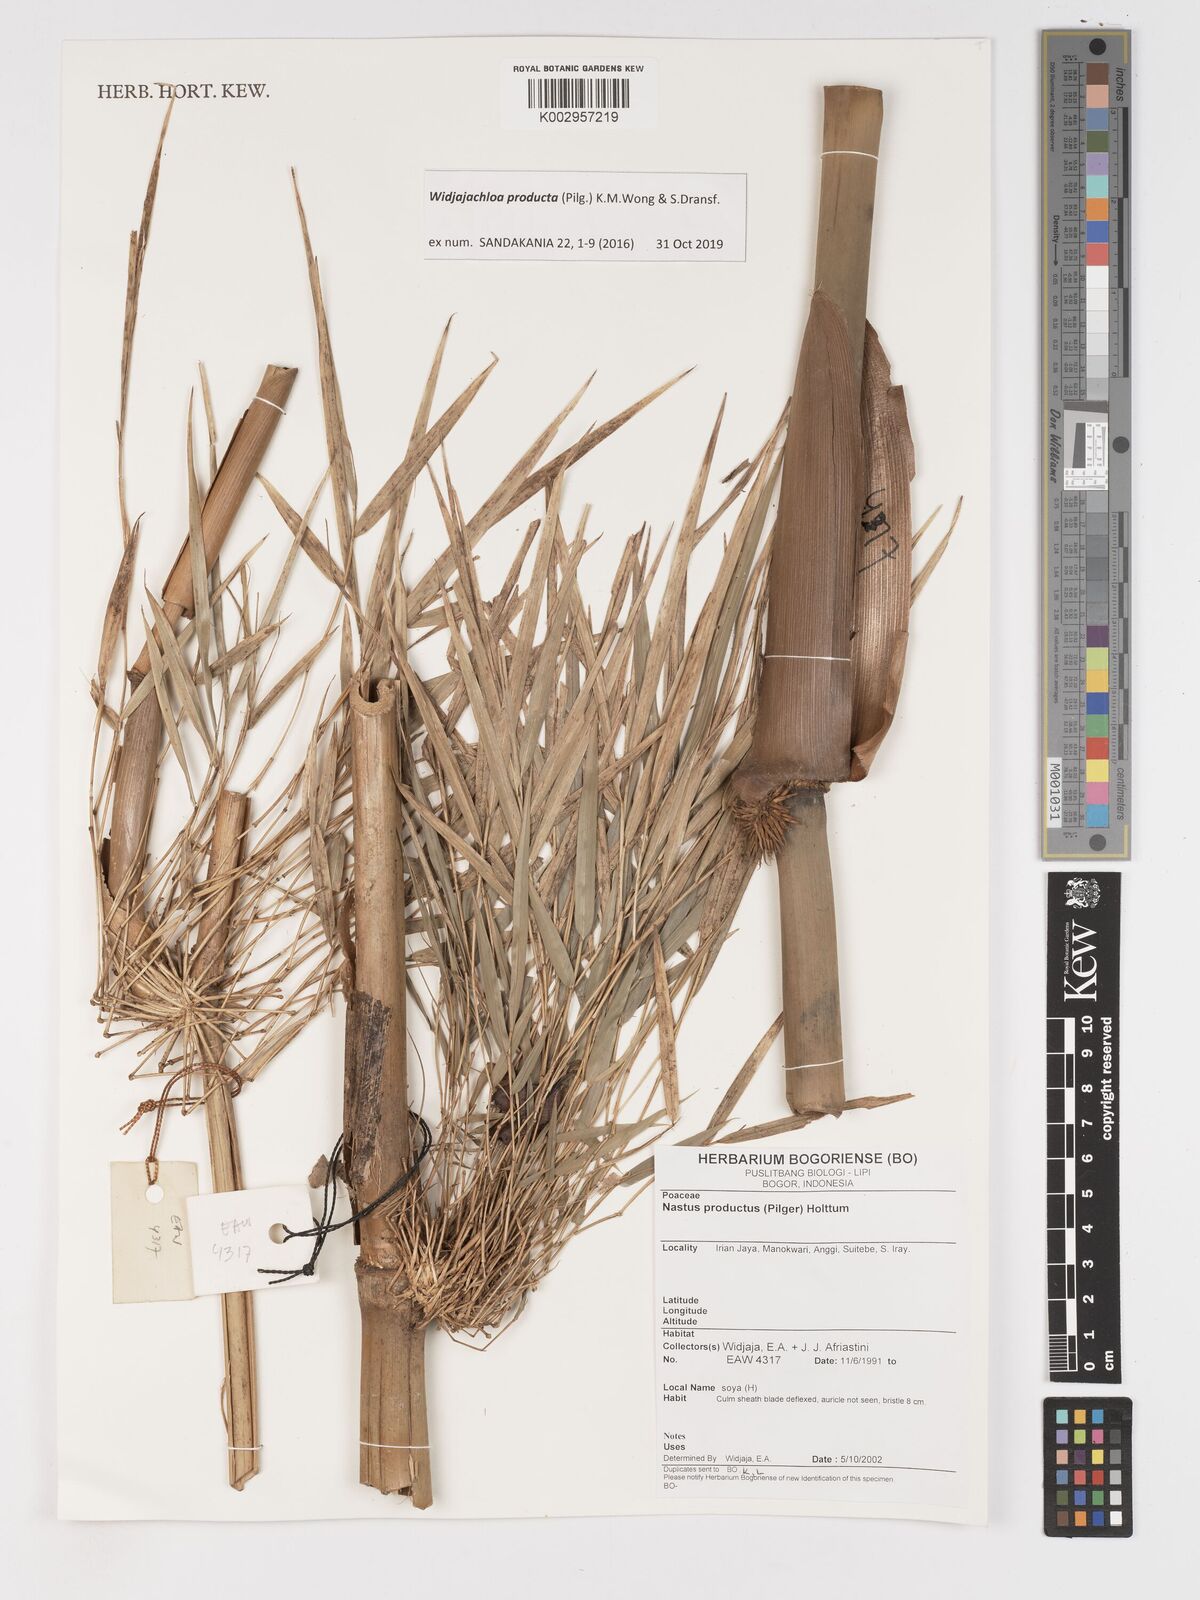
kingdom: Plantae
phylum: Tracheophyta
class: Liliopsida
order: Poales
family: Poaceae
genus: Widjajachloa
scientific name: Widjajachloa
